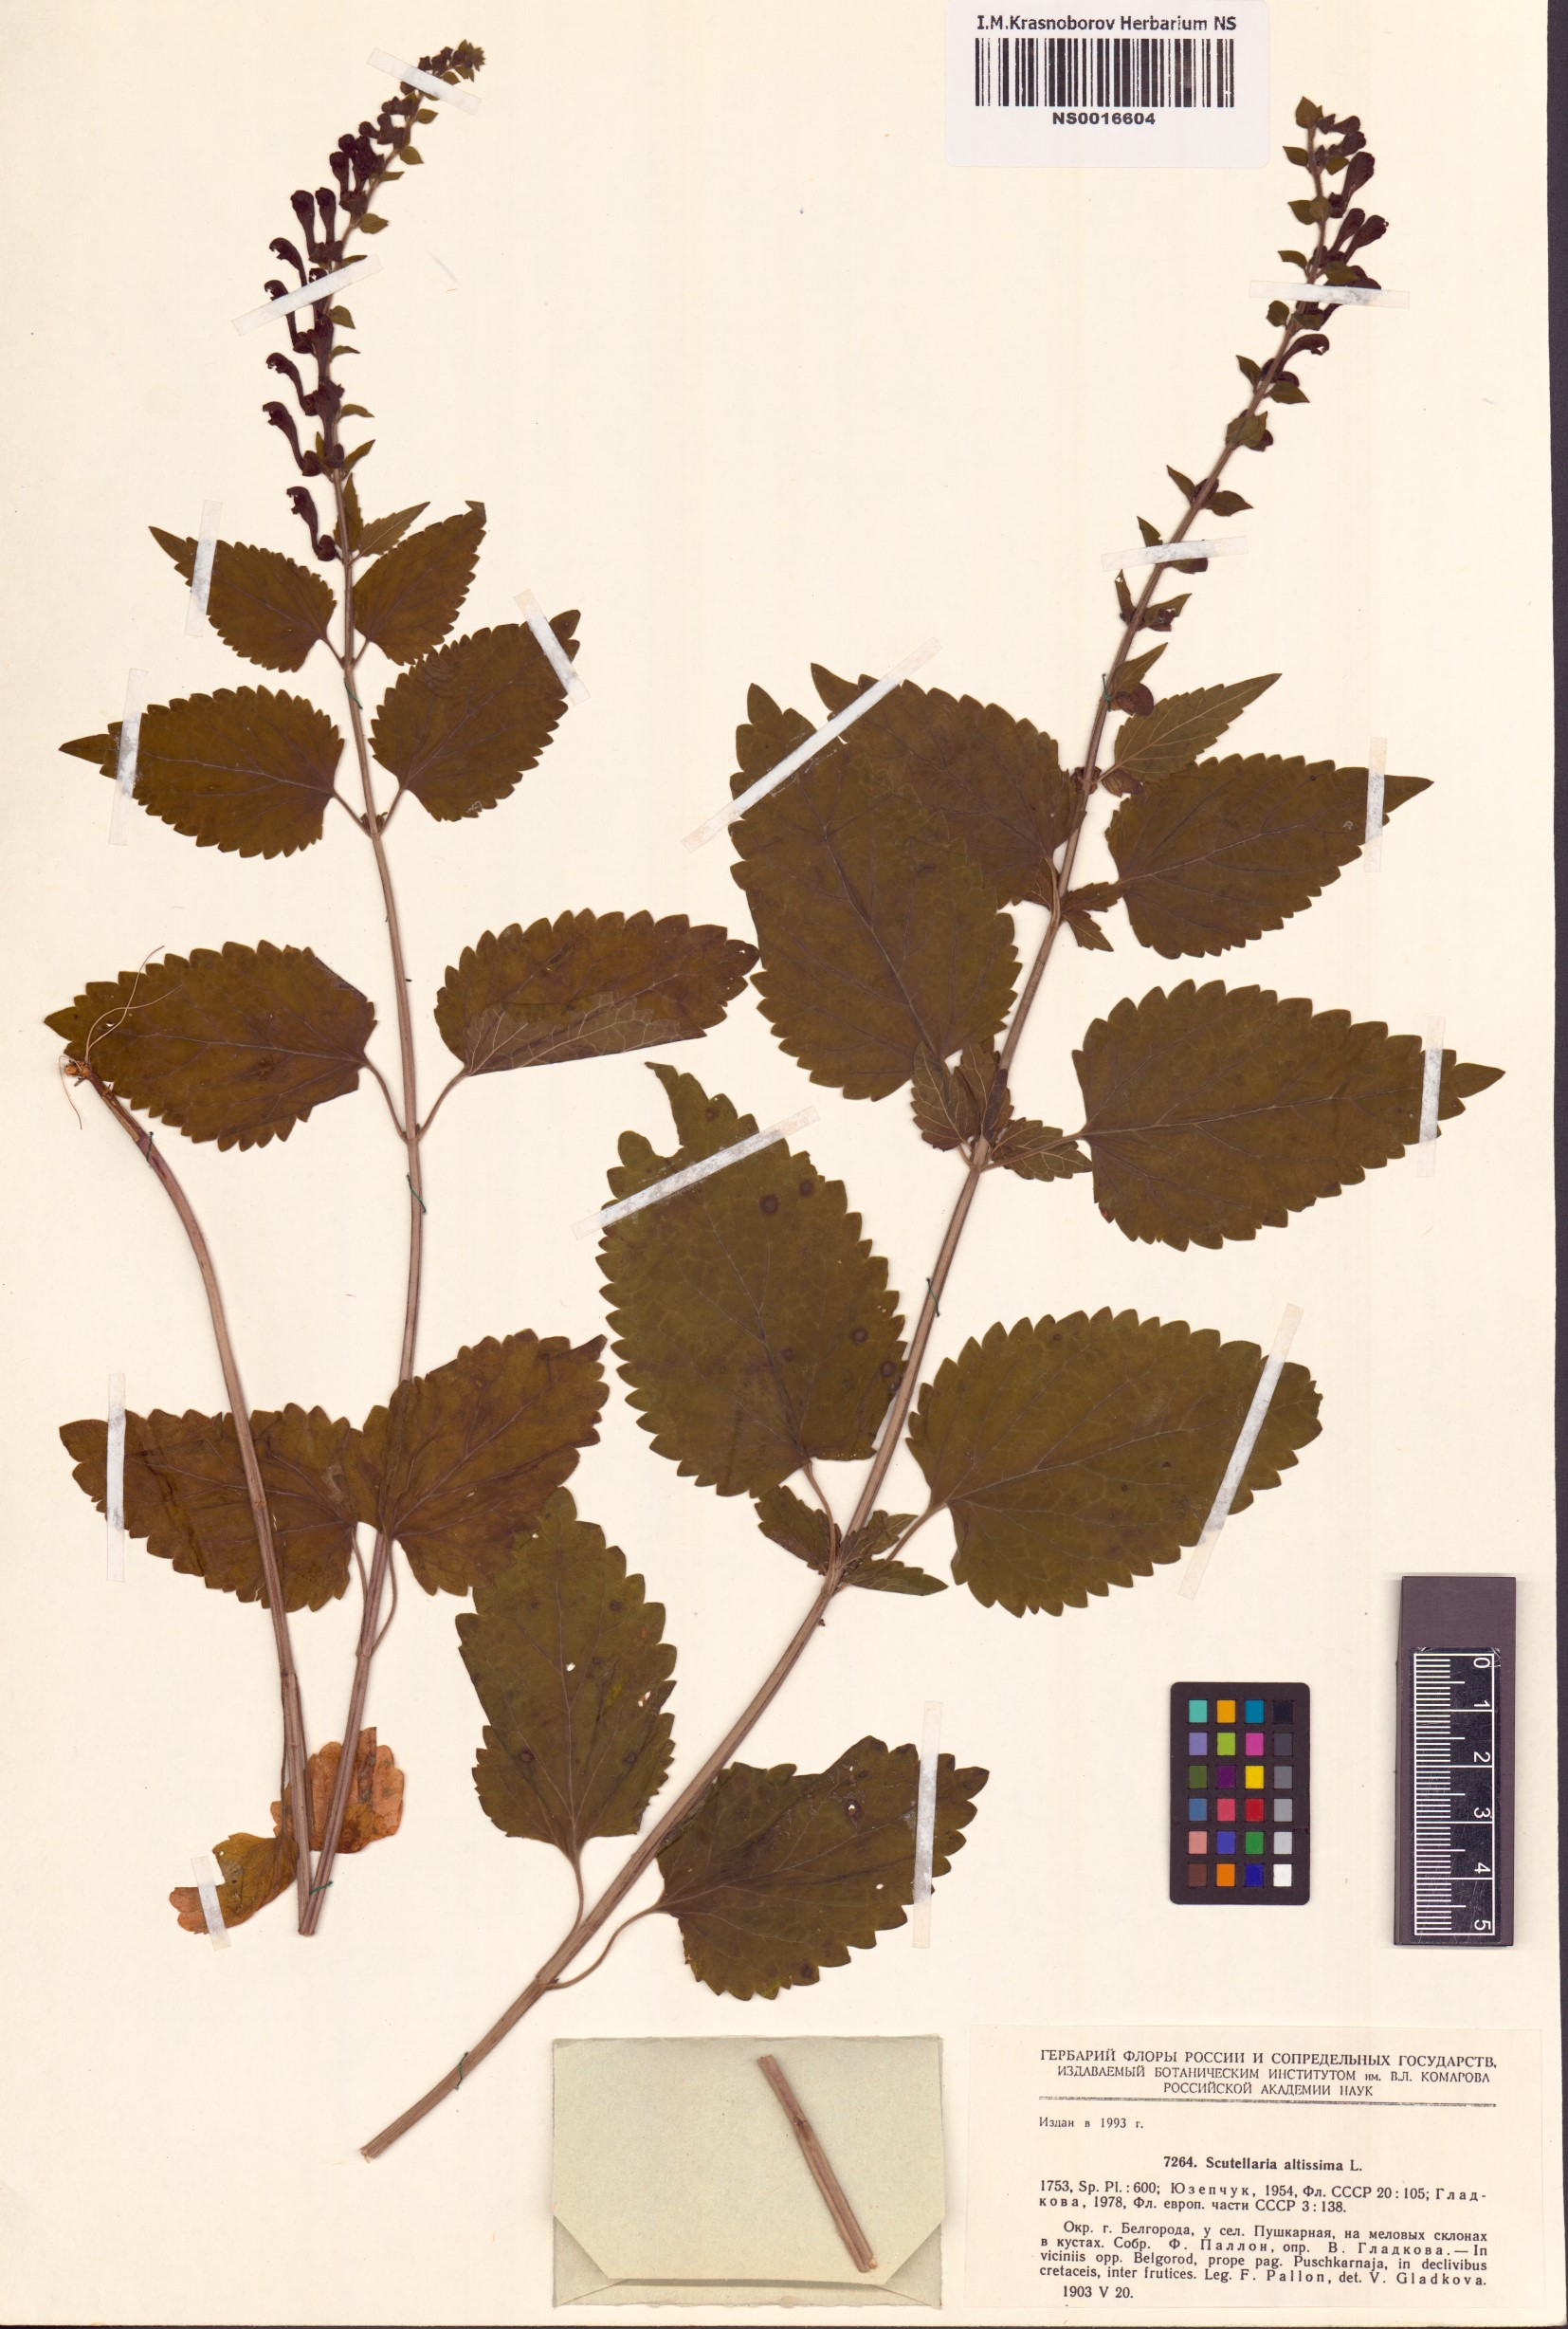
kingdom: Plantae
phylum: Tracheophyta
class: Magnoliopsida
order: Lamiales
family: Lamiaceae
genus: Scutellaria
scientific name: Scutellaria altissima
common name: Somerset skullcap
